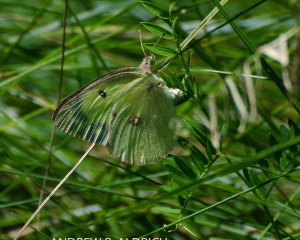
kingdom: Animalia
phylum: Arthropoda
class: Insecta
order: Lepidoptera
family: Pieridae
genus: Colias
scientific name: Colias philodice
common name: Clouded Sulphur
